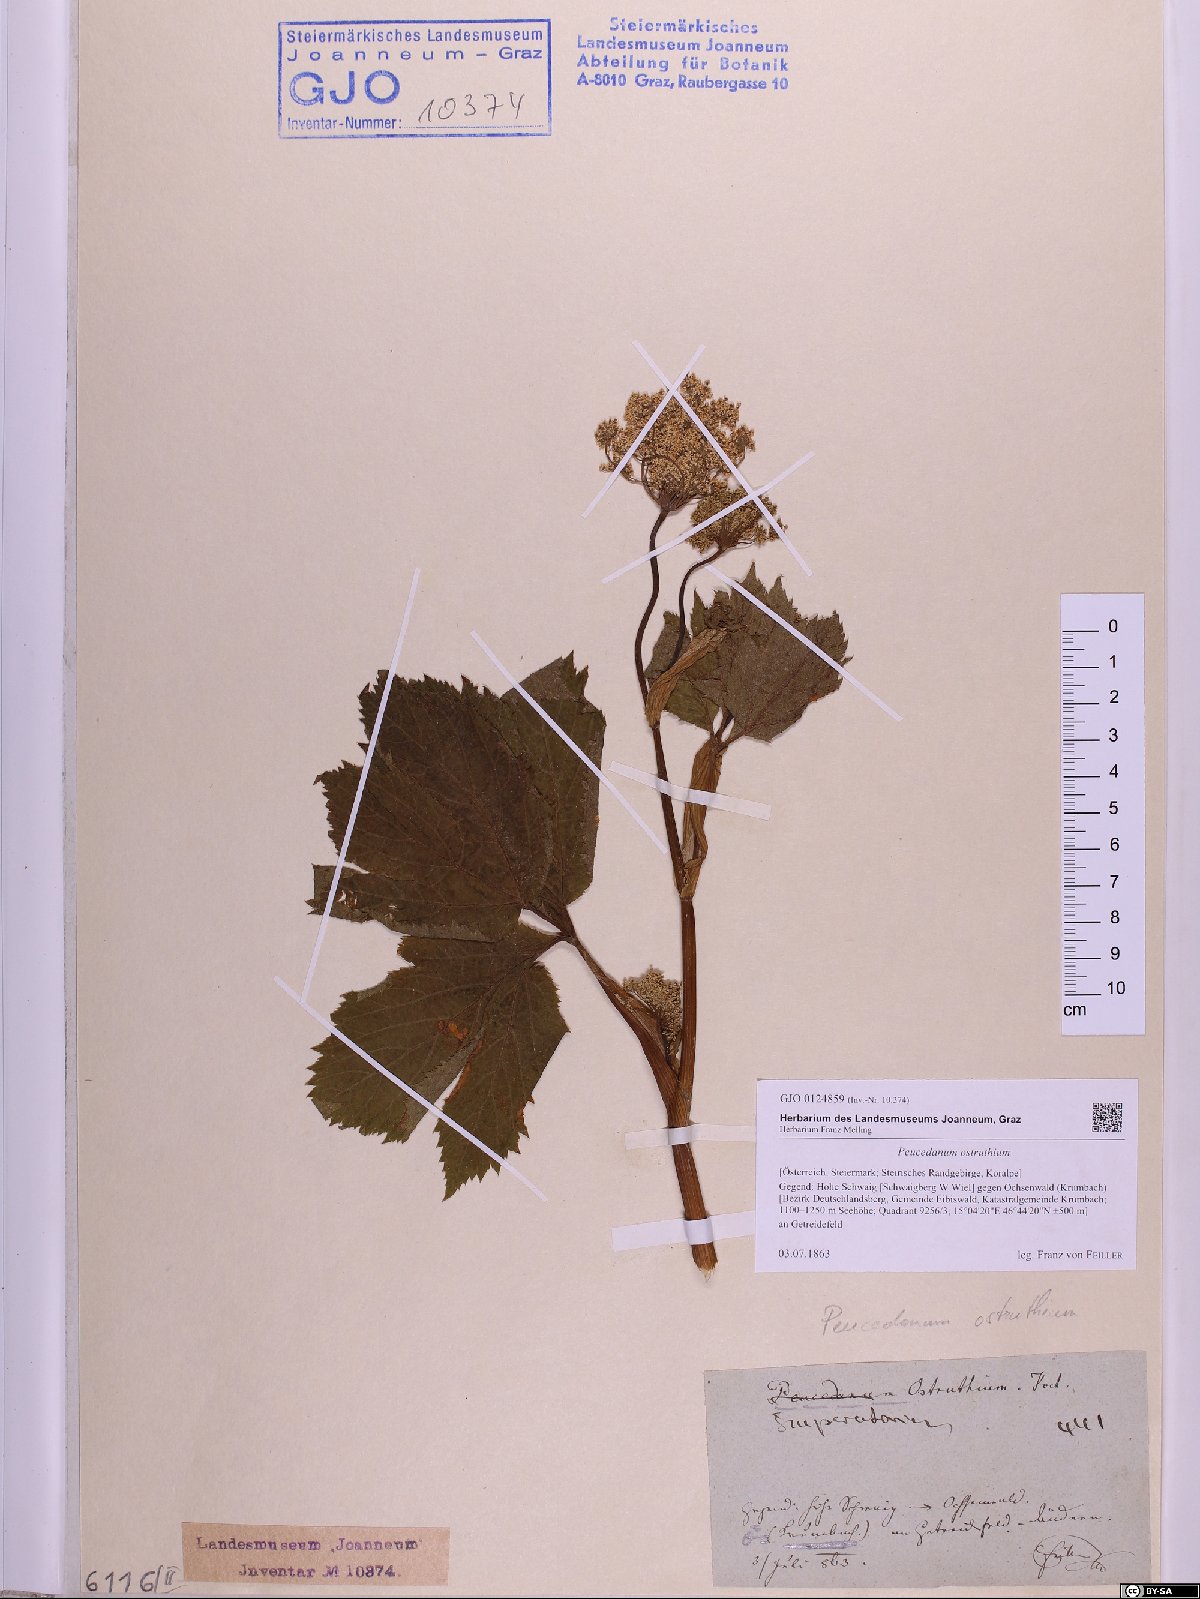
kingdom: Plantae
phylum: Tracheophyta
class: Magnoliopsida
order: Apiales
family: Apiaceae
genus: Imperatoria
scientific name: Imperatoria ostruthium
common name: Masterwort
